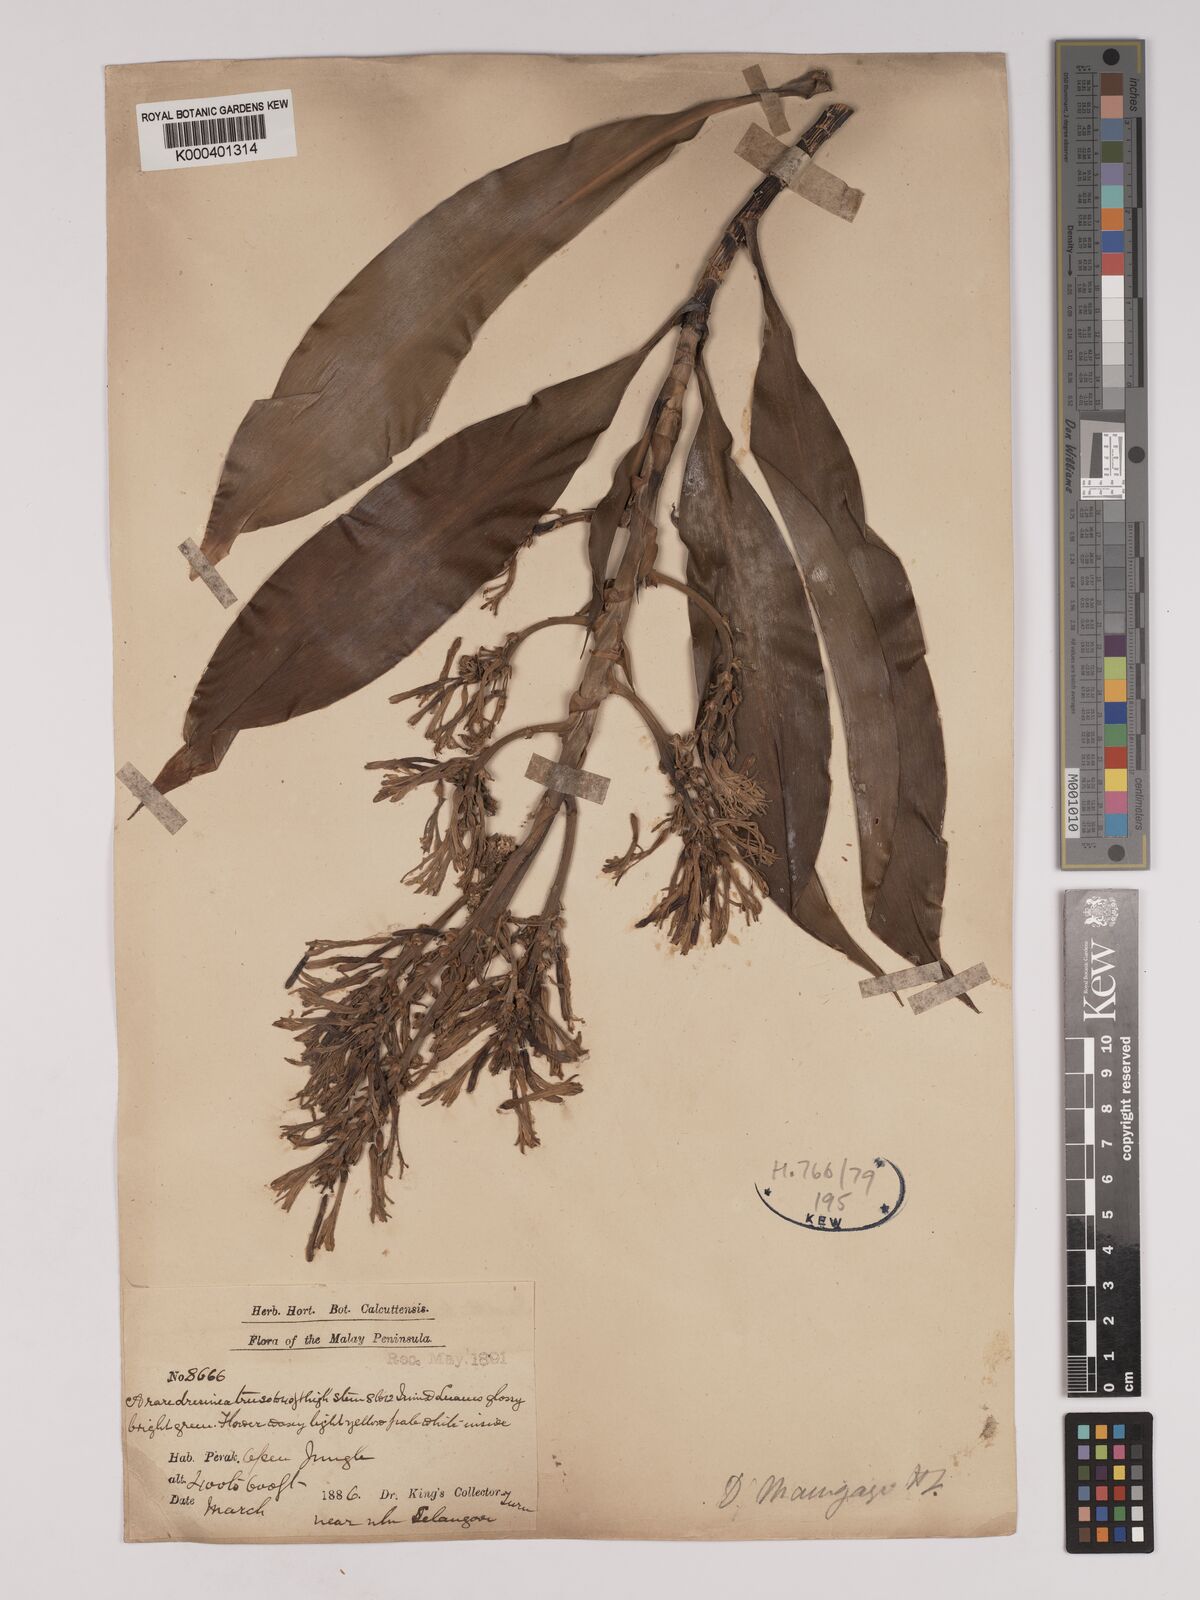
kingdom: Plantae
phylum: Tracheophyta
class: Liliopsida
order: Asparagales
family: Asparagaceae
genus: Dracaena
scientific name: Dracaena maingayi
